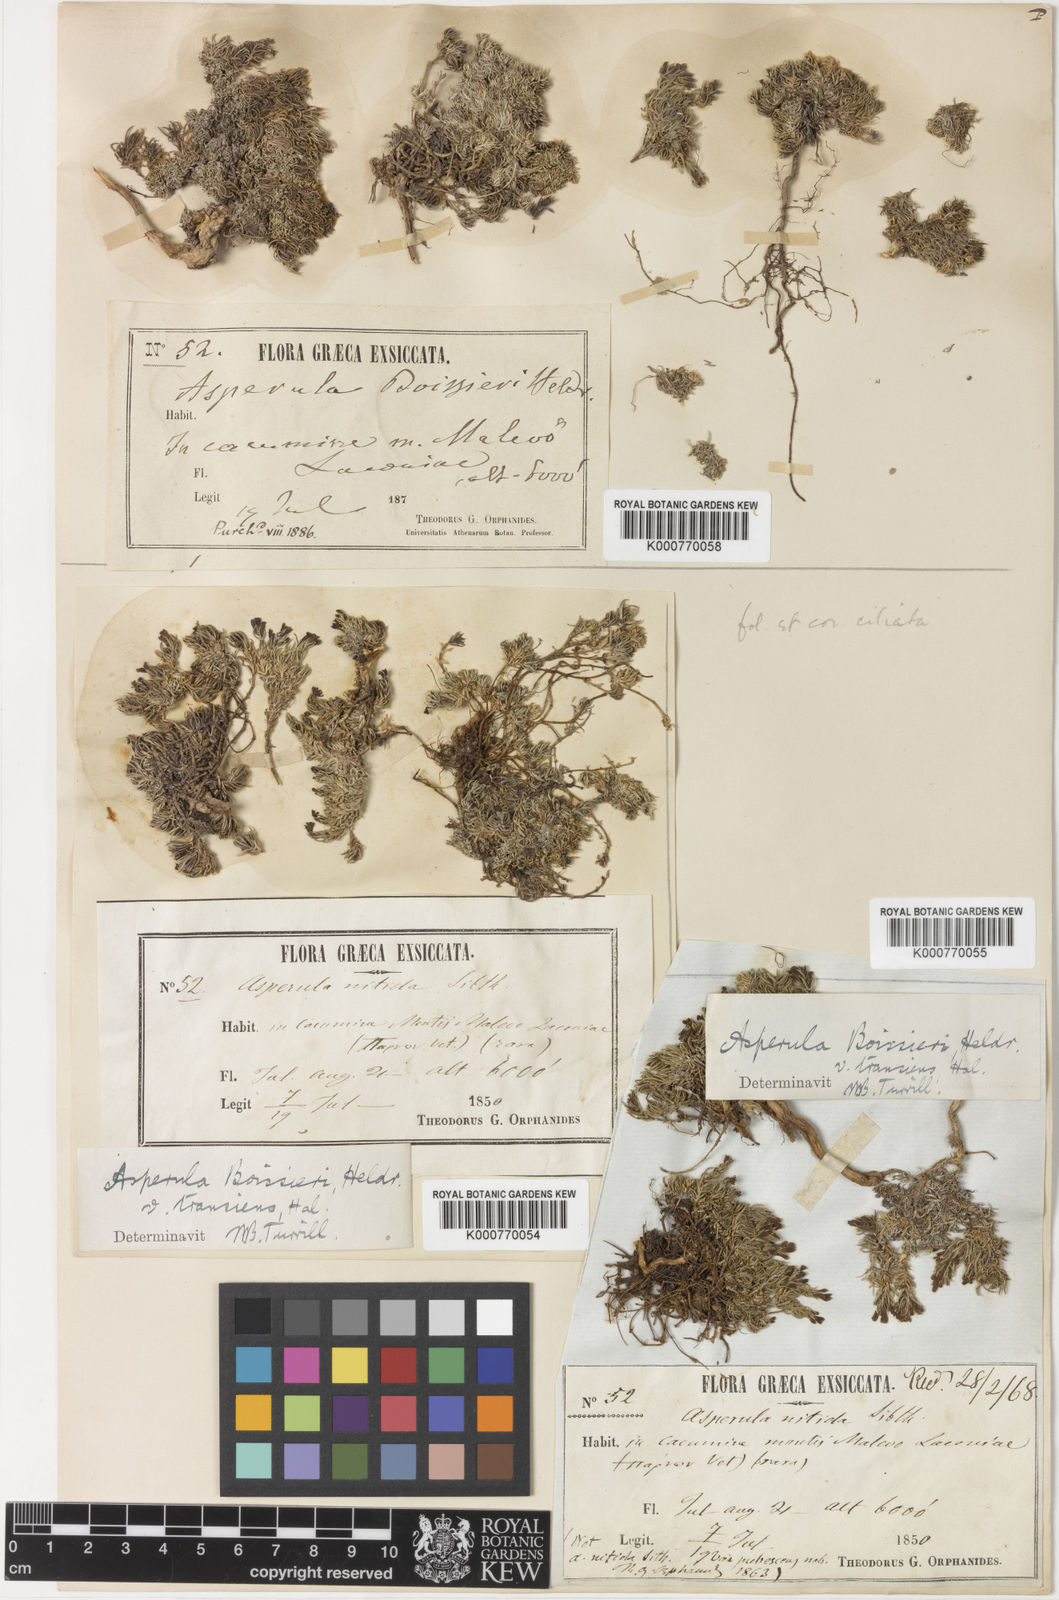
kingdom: Plantae
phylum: Tracheophyta
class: Magnoliopsida
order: Gentianales
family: Rubiaceae
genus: Cynanchica
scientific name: Cynanchica boissieri
